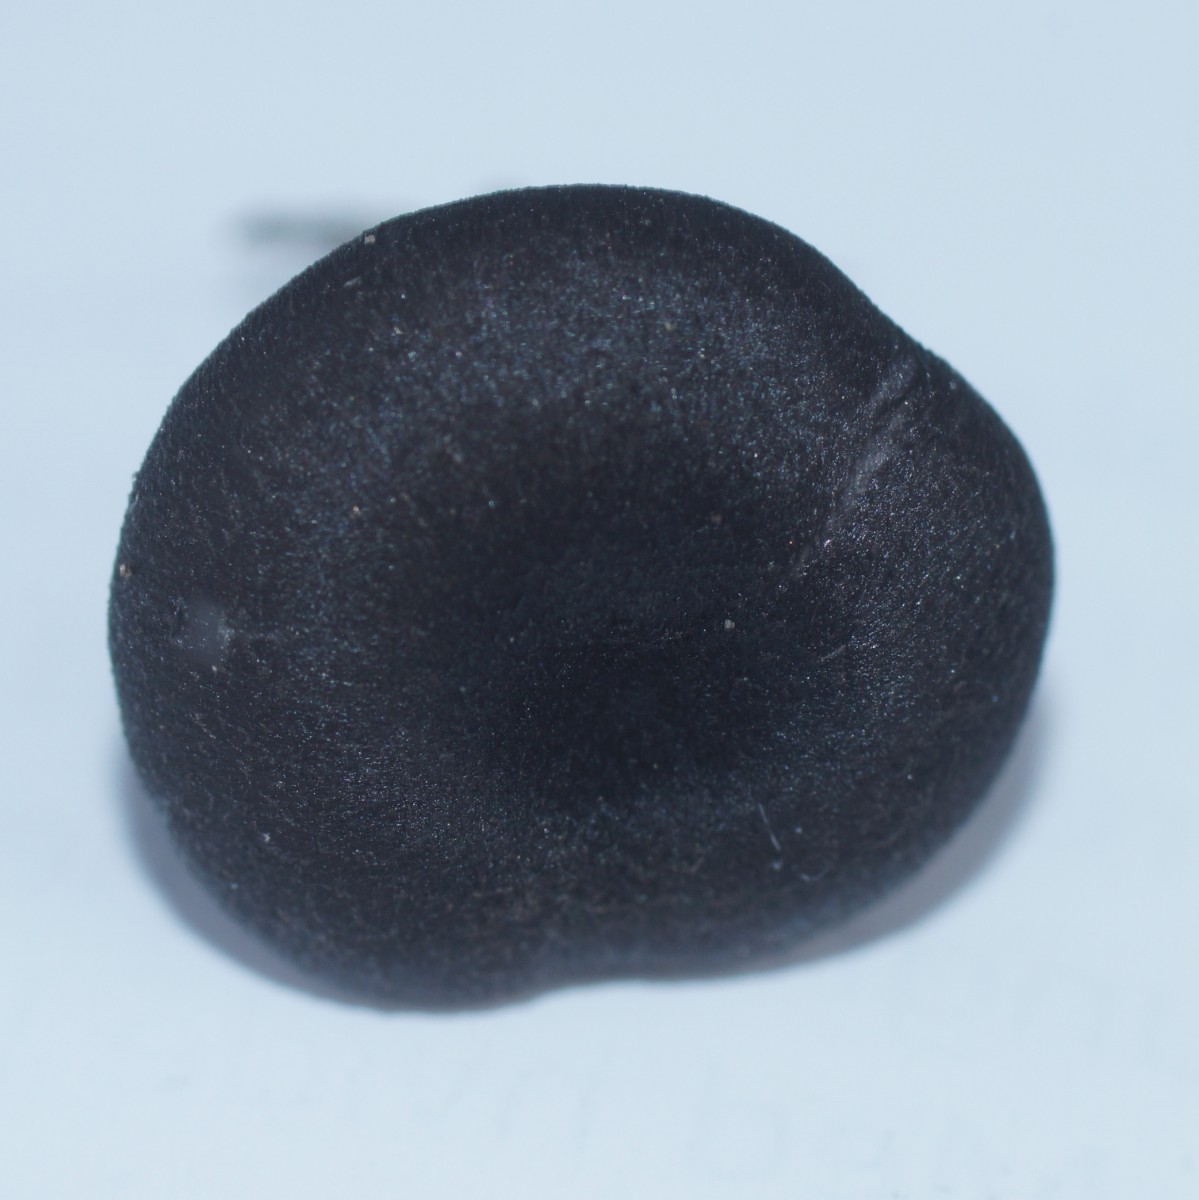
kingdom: Fungi
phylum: Basidiomycota
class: Agaricomycetes
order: Agaricales
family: Entolomataceae
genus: Entoloma
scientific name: Entoloma
